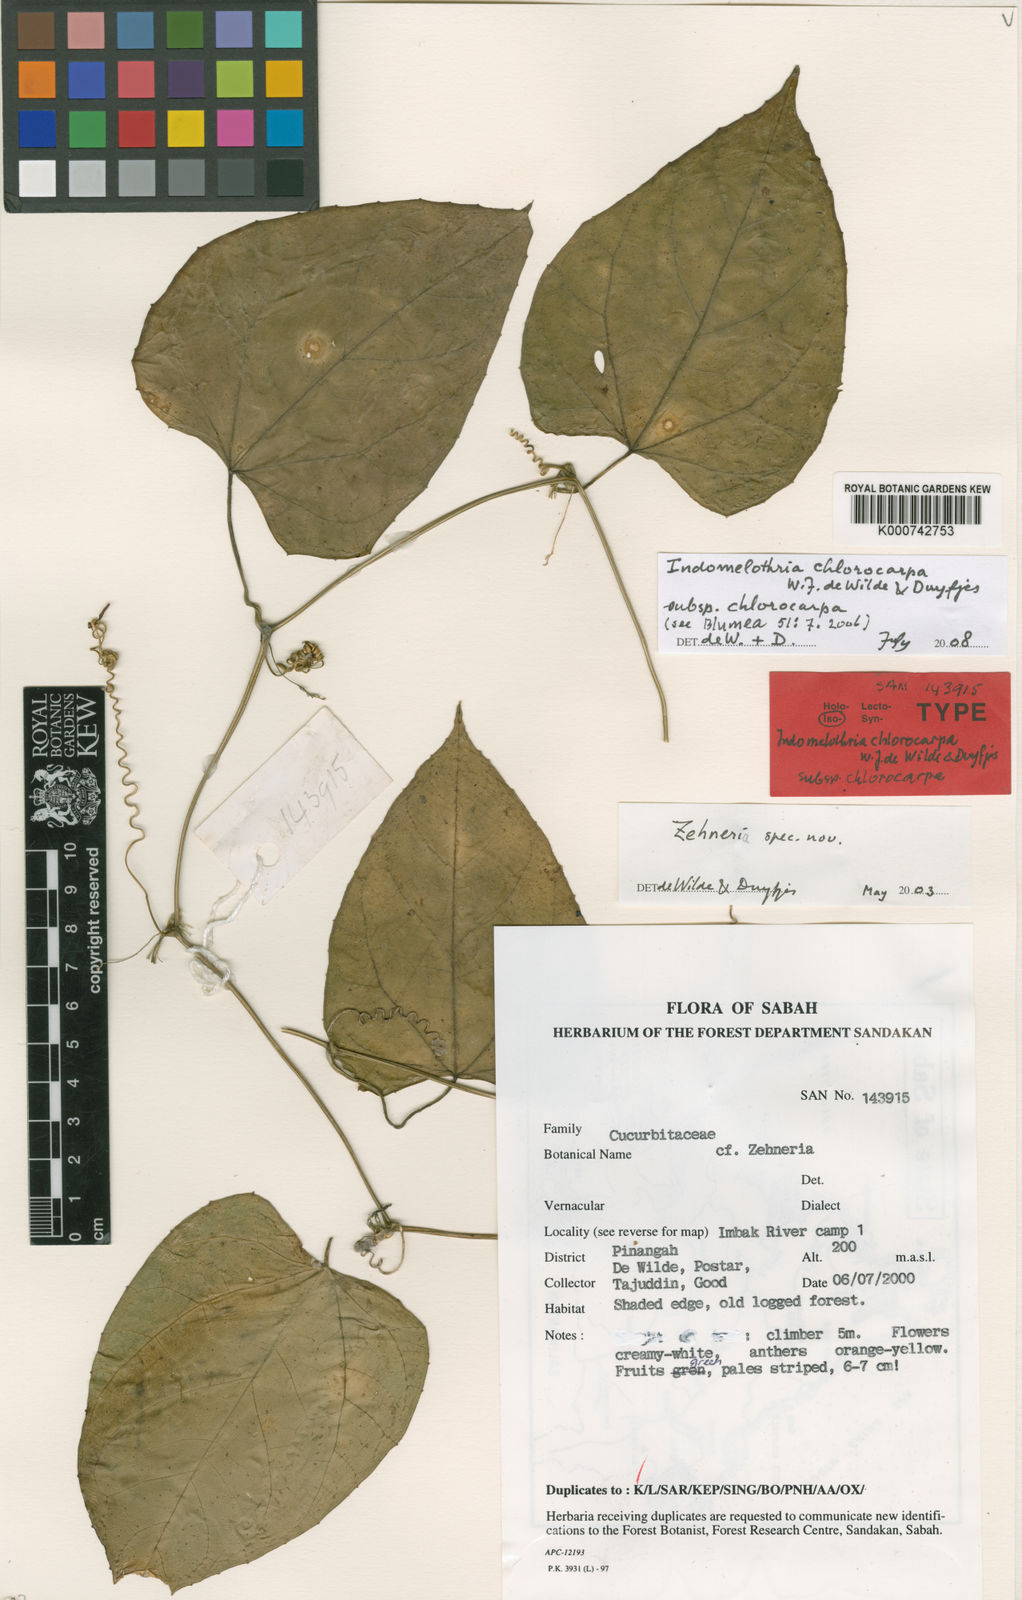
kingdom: Plantae
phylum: Tracheophyta
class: Magnoliopsida
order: Cucurbitales
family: Cucurbitaceae
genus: Indomelothria
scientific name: Indomelothria chlorocarpa
